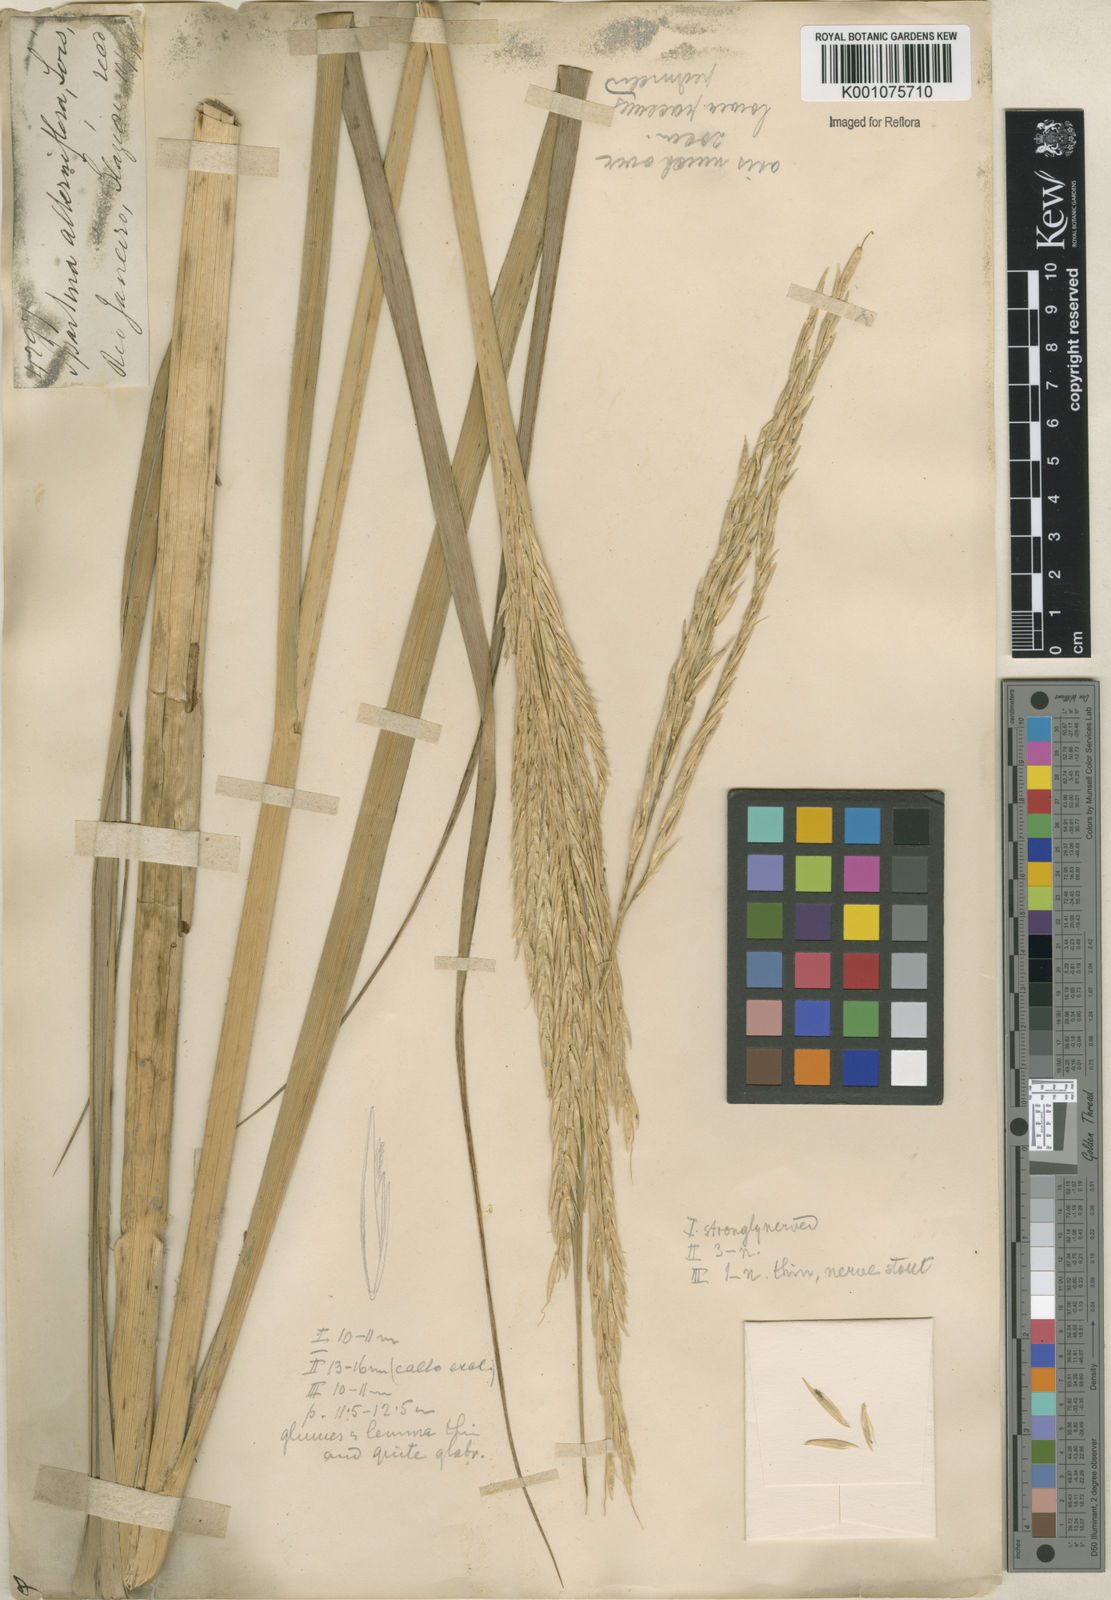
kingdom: Animalia
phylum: Mollusca
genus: Spartina
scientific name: Spartina
